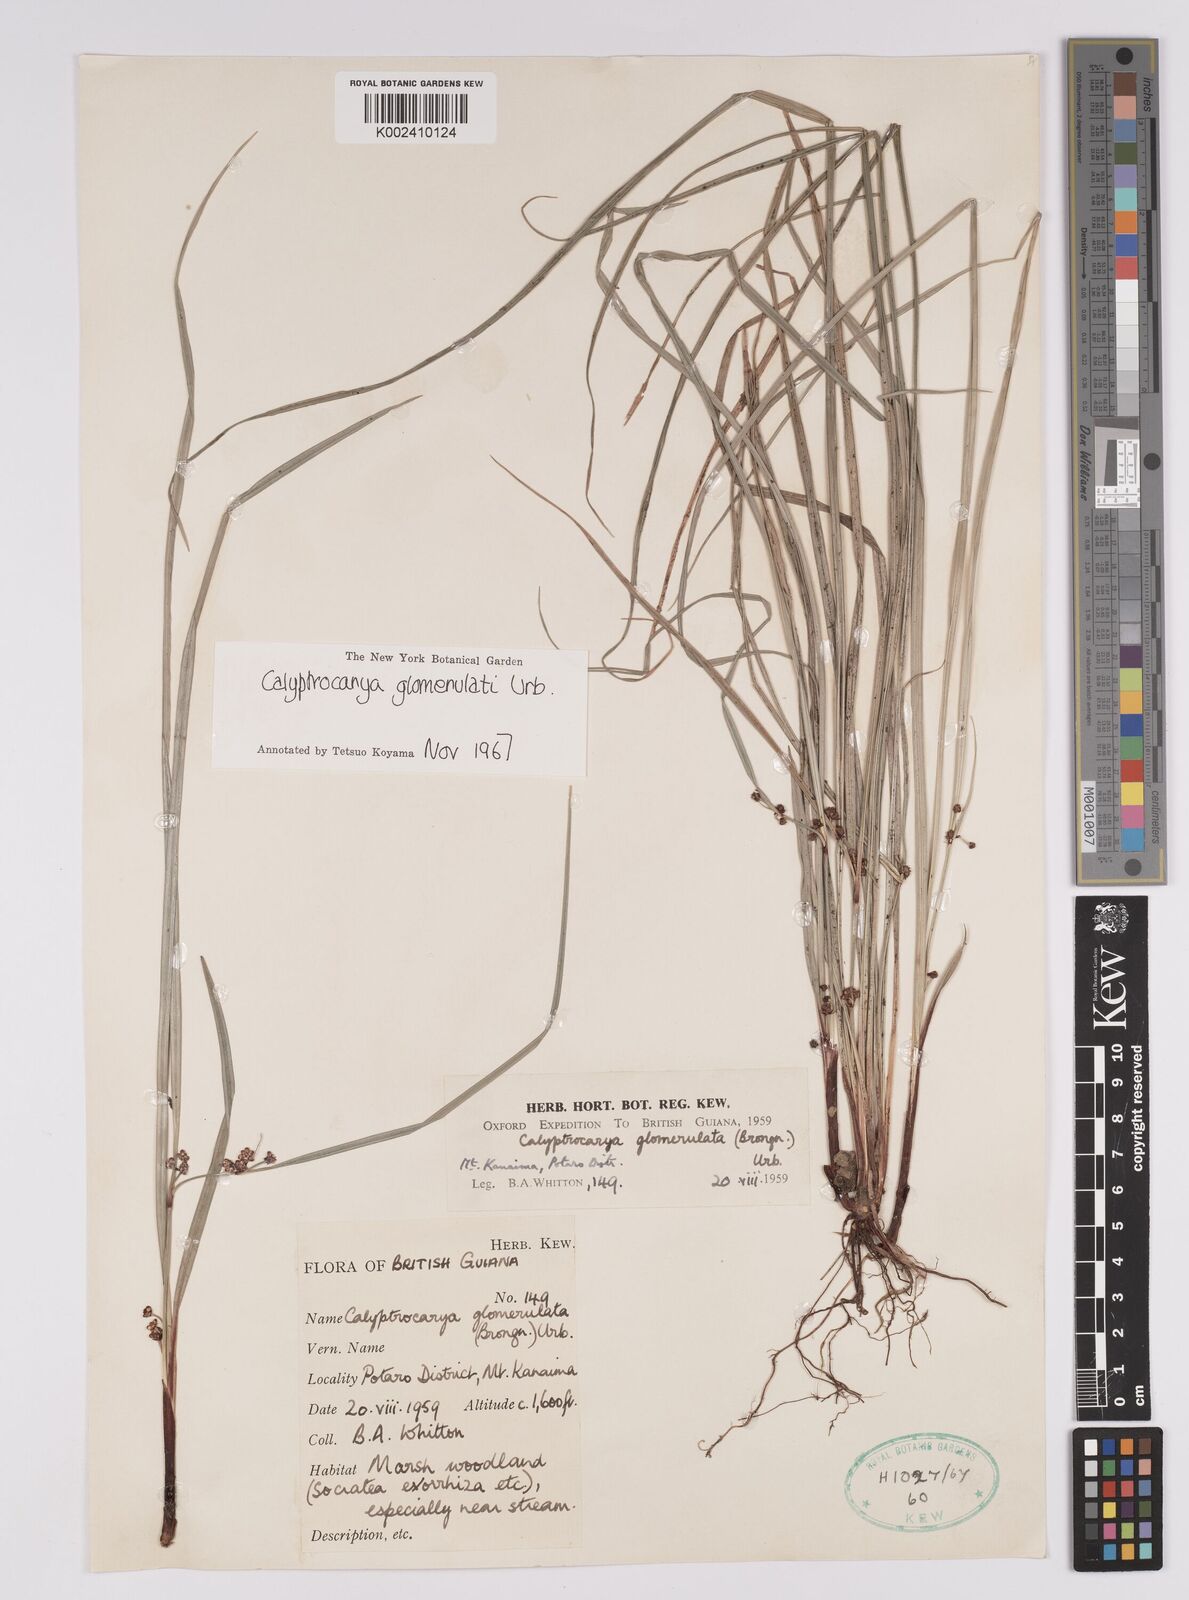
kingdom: Plantae
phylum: Tracheophyta
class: Liliopsida
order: Poales
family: Cyperaceae
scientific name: Cyperaceae
